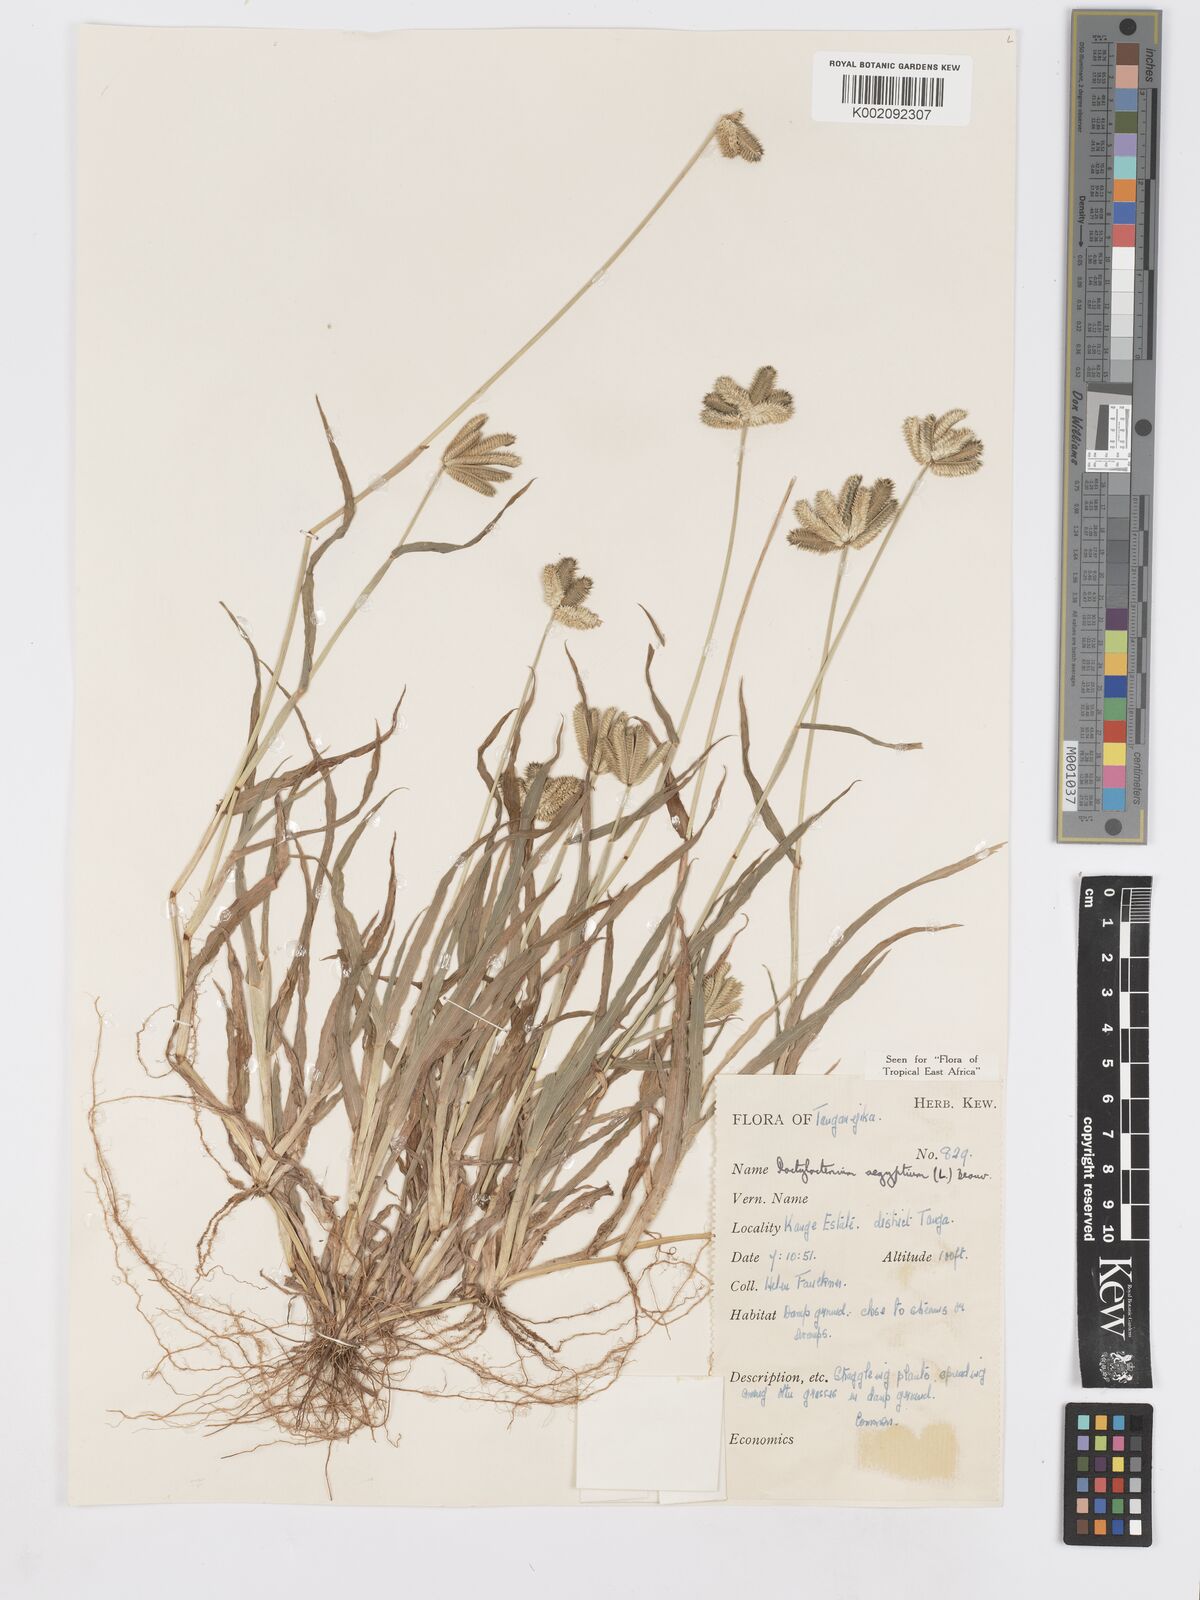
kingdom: Plantae
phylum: Tracheophyta
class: Liliopsida
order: Poales
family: Poaceae
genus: Dactyloctenium
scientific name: Dactyloctenium aegyptium
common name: Egyptian grass
